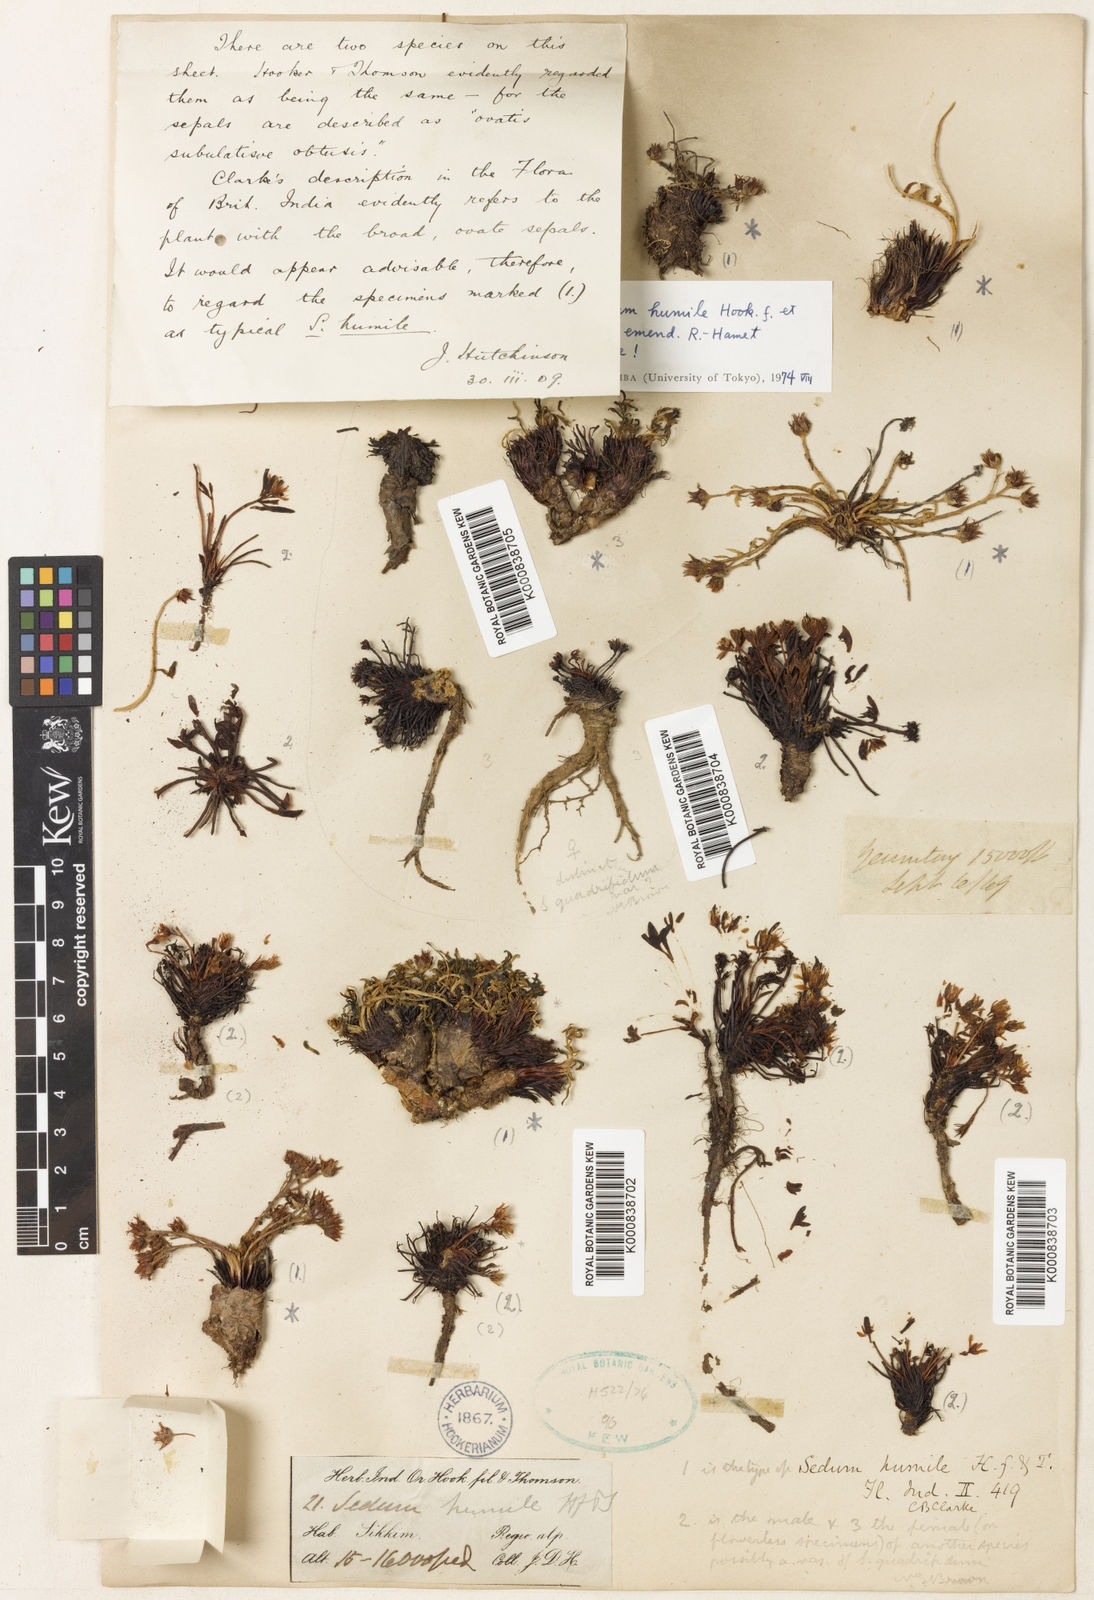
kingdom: Plantae
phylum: Tracheophyta
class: Magnoliopsida
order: Saxifragales
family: Crassulaceae
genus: Rhodiola
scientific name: Rhodiola humilis
